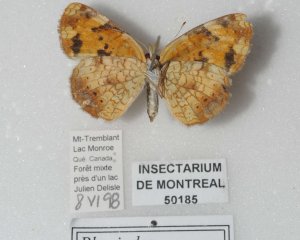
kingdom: Animalia
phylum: Arthropoda
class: Insecta
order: Lepidoptera
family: Nymphalidae
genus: Phyciodes
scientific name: Phyciodes tharos
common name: Northern Crescent
